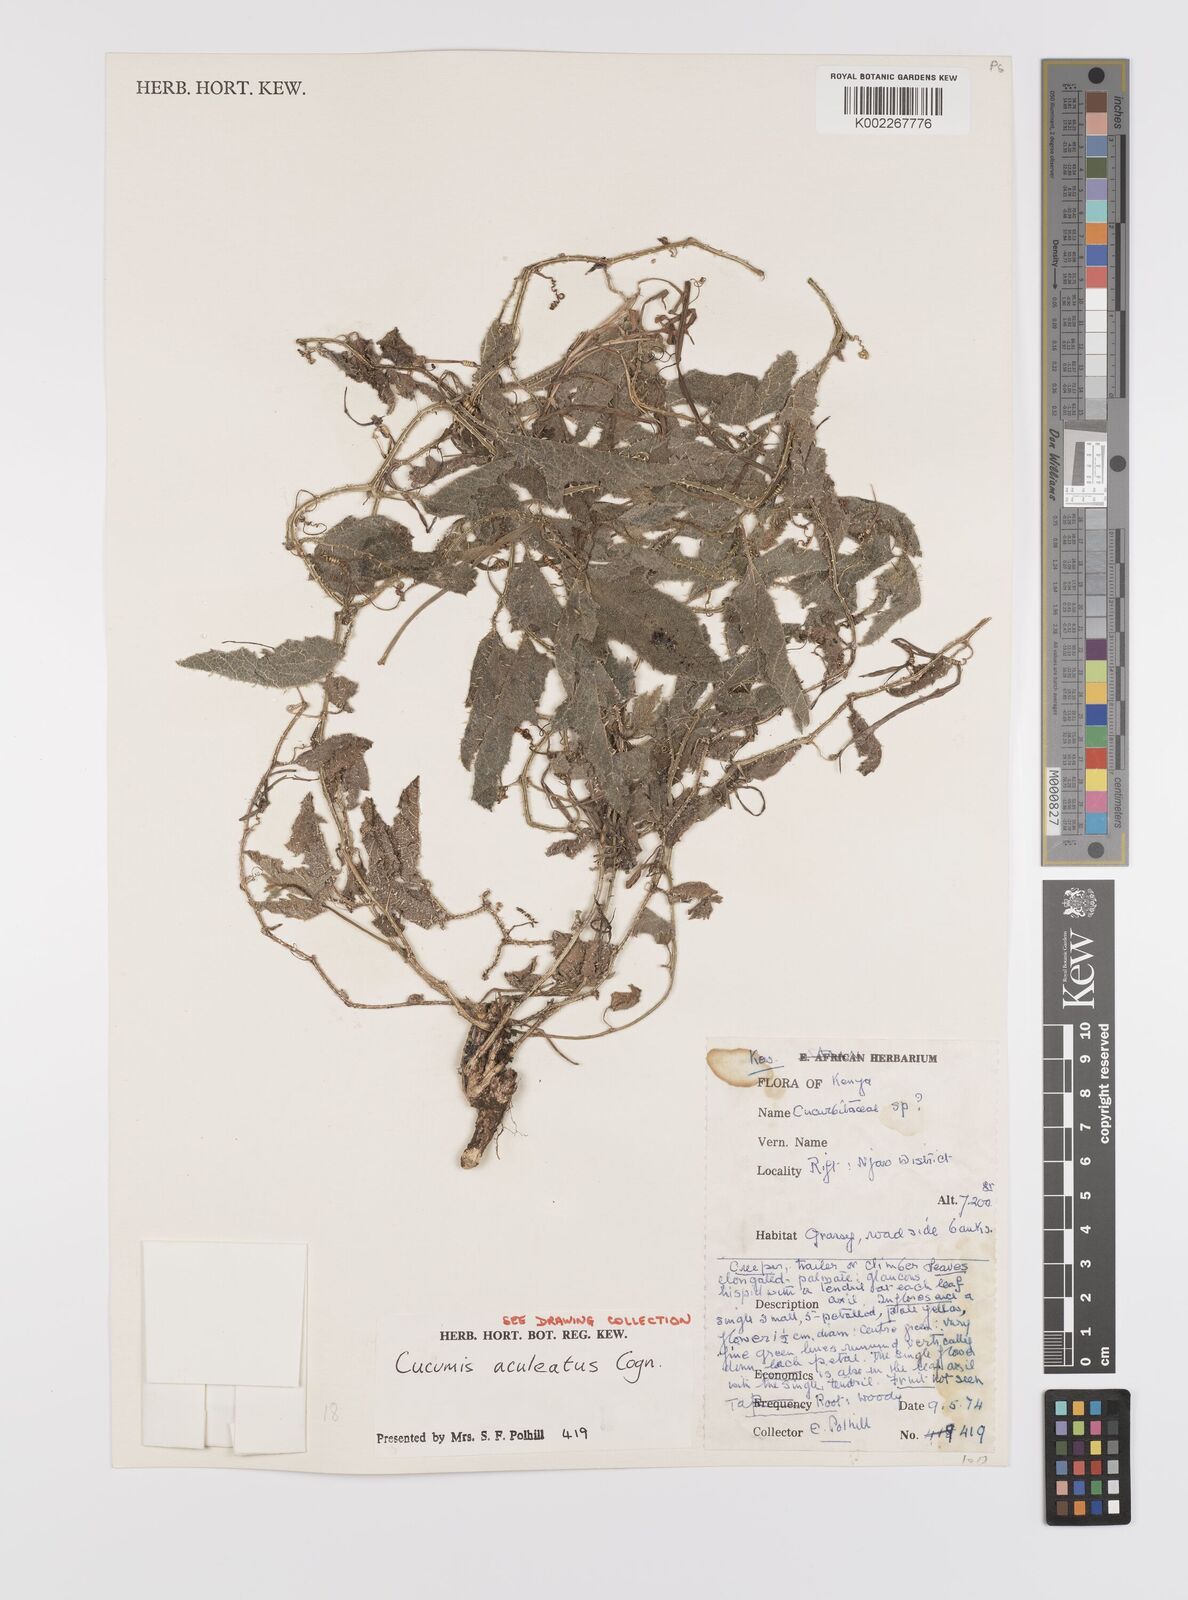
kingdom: Plantae
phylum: Tracheophyta
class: Magnoliopsida
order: Cucurbitales
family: Cucurbitaceae
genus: Cucumis
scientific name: Cucumis aculeatus
